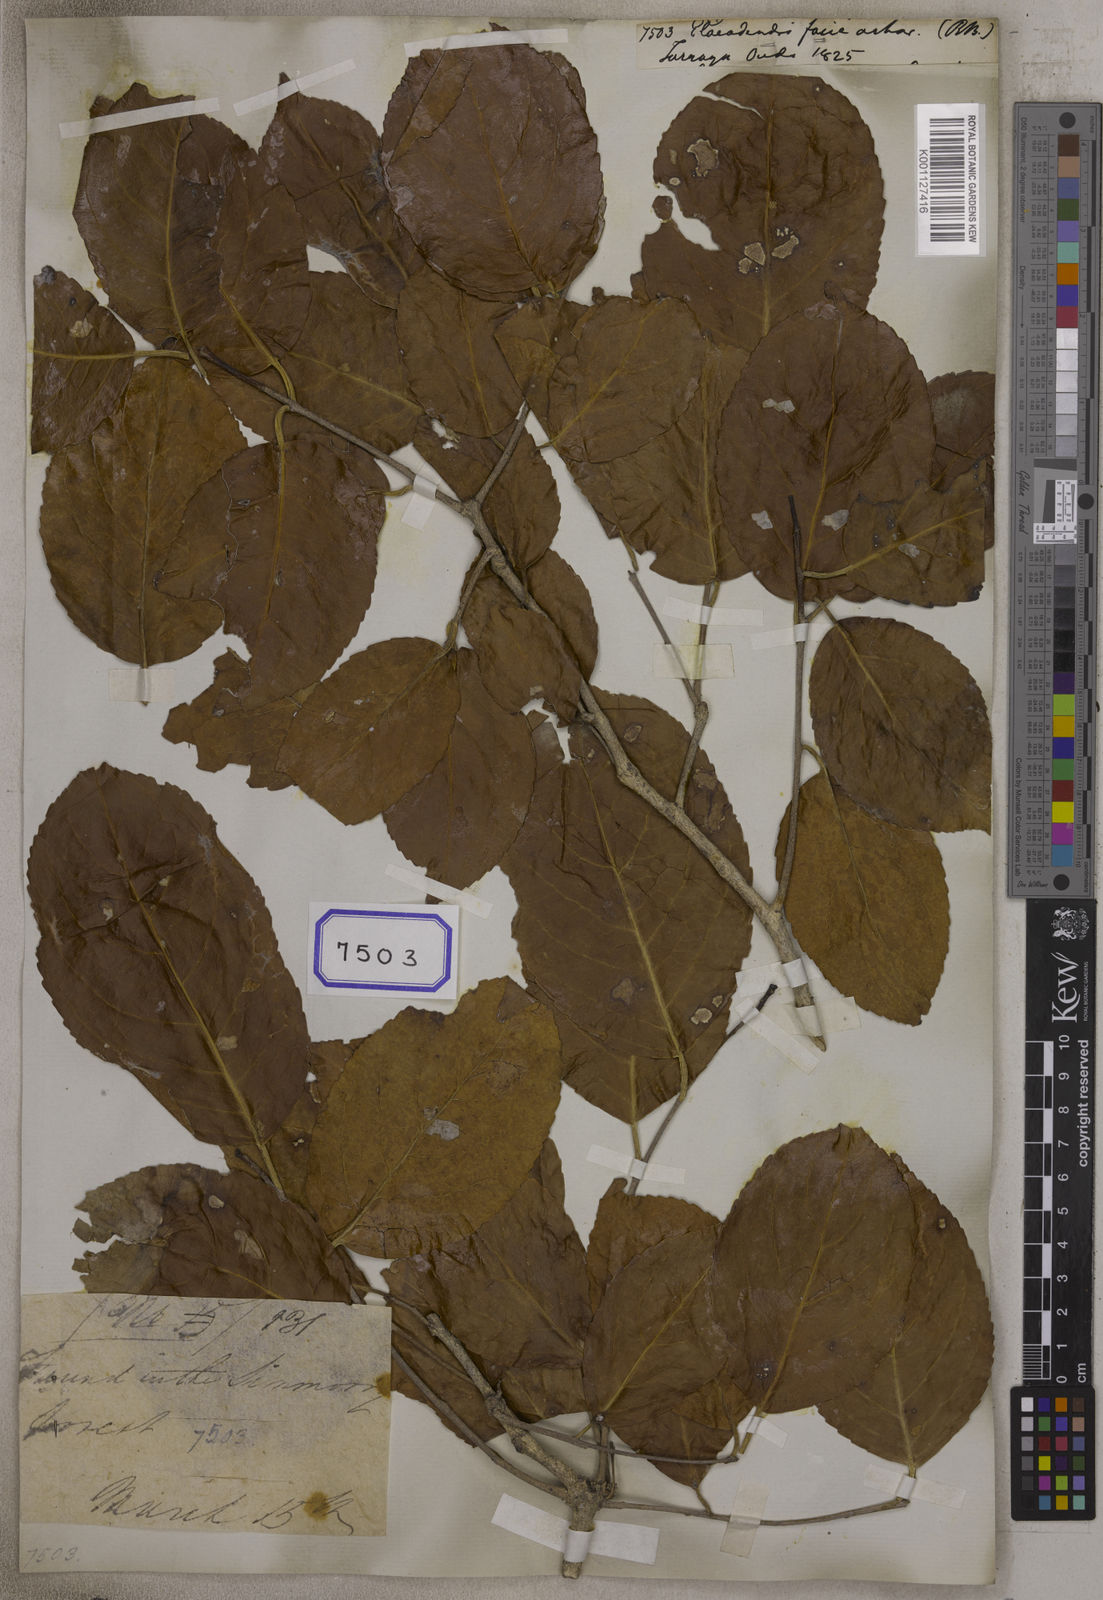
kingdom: Plantae
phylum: Tracheophyta
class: Magnoliopsida
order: Celastrales
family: Celastraceae
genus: Elaeodendron
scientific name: Elaeodendron
